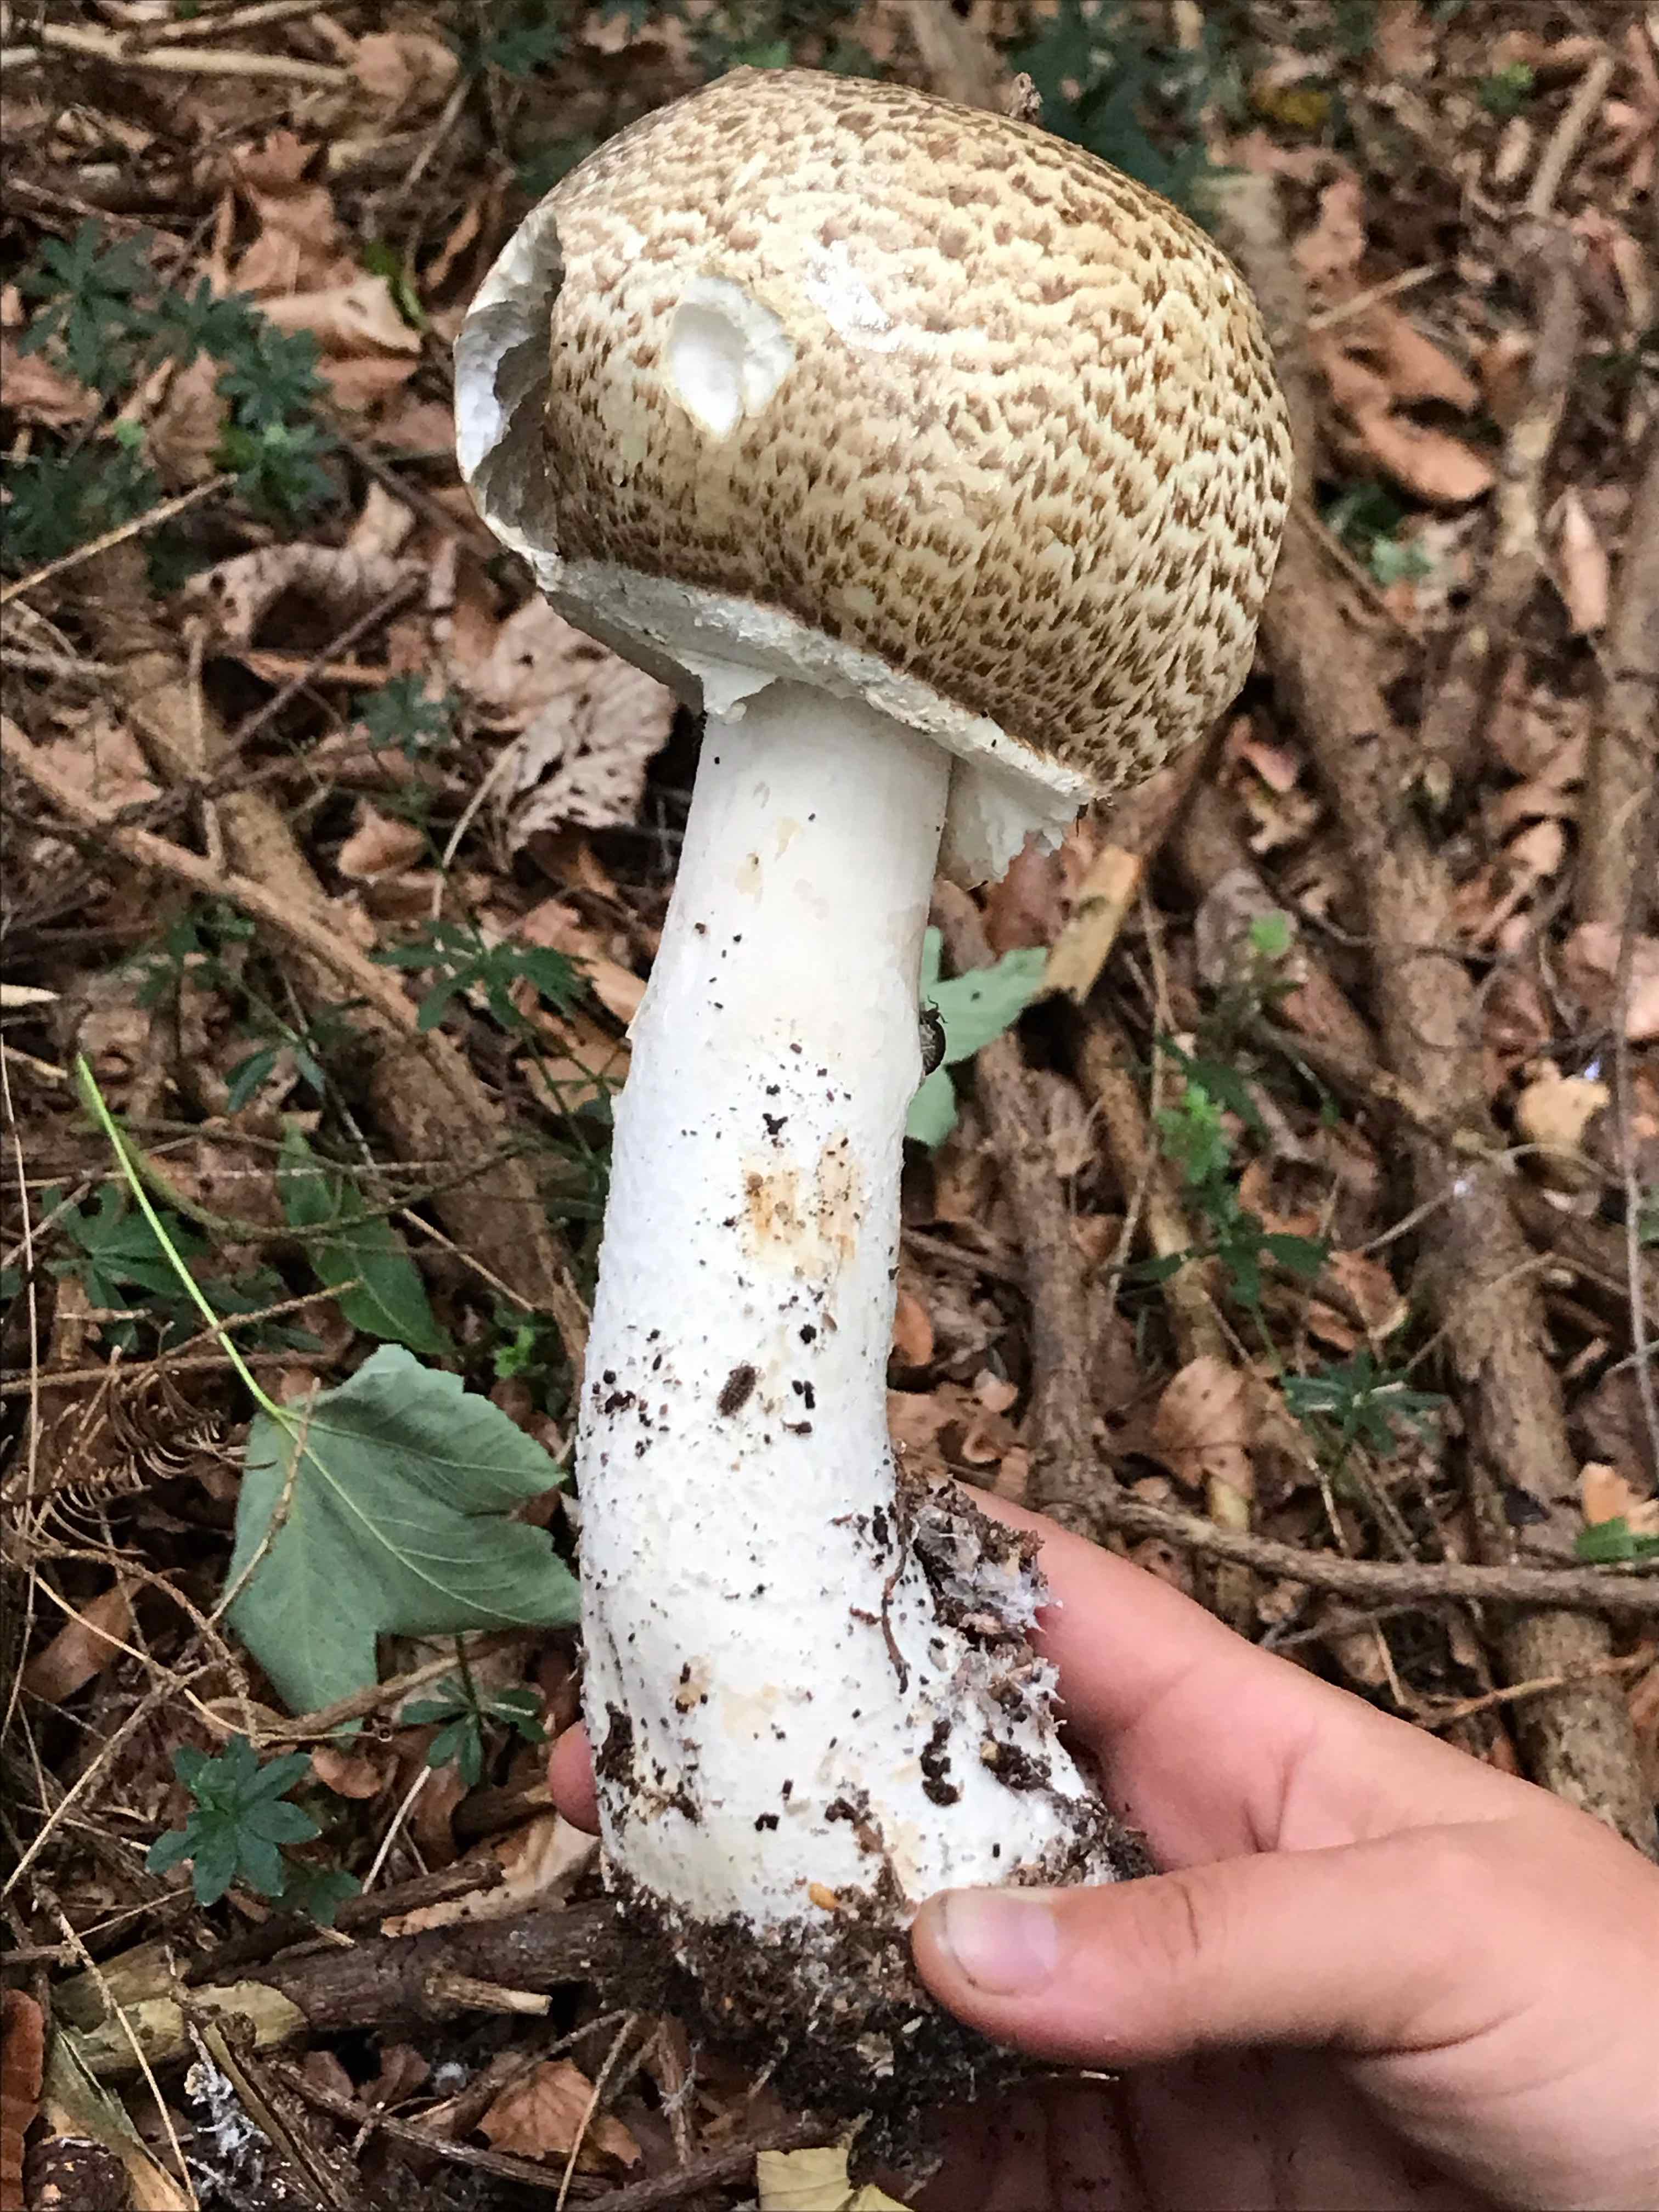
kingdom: Fungi
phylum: Basidiomycota
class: Agaricomycetes
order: Agaricales
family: Agaricaceae
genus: Agaricus
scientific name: Agaricus augustus
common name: prægtig champignon
